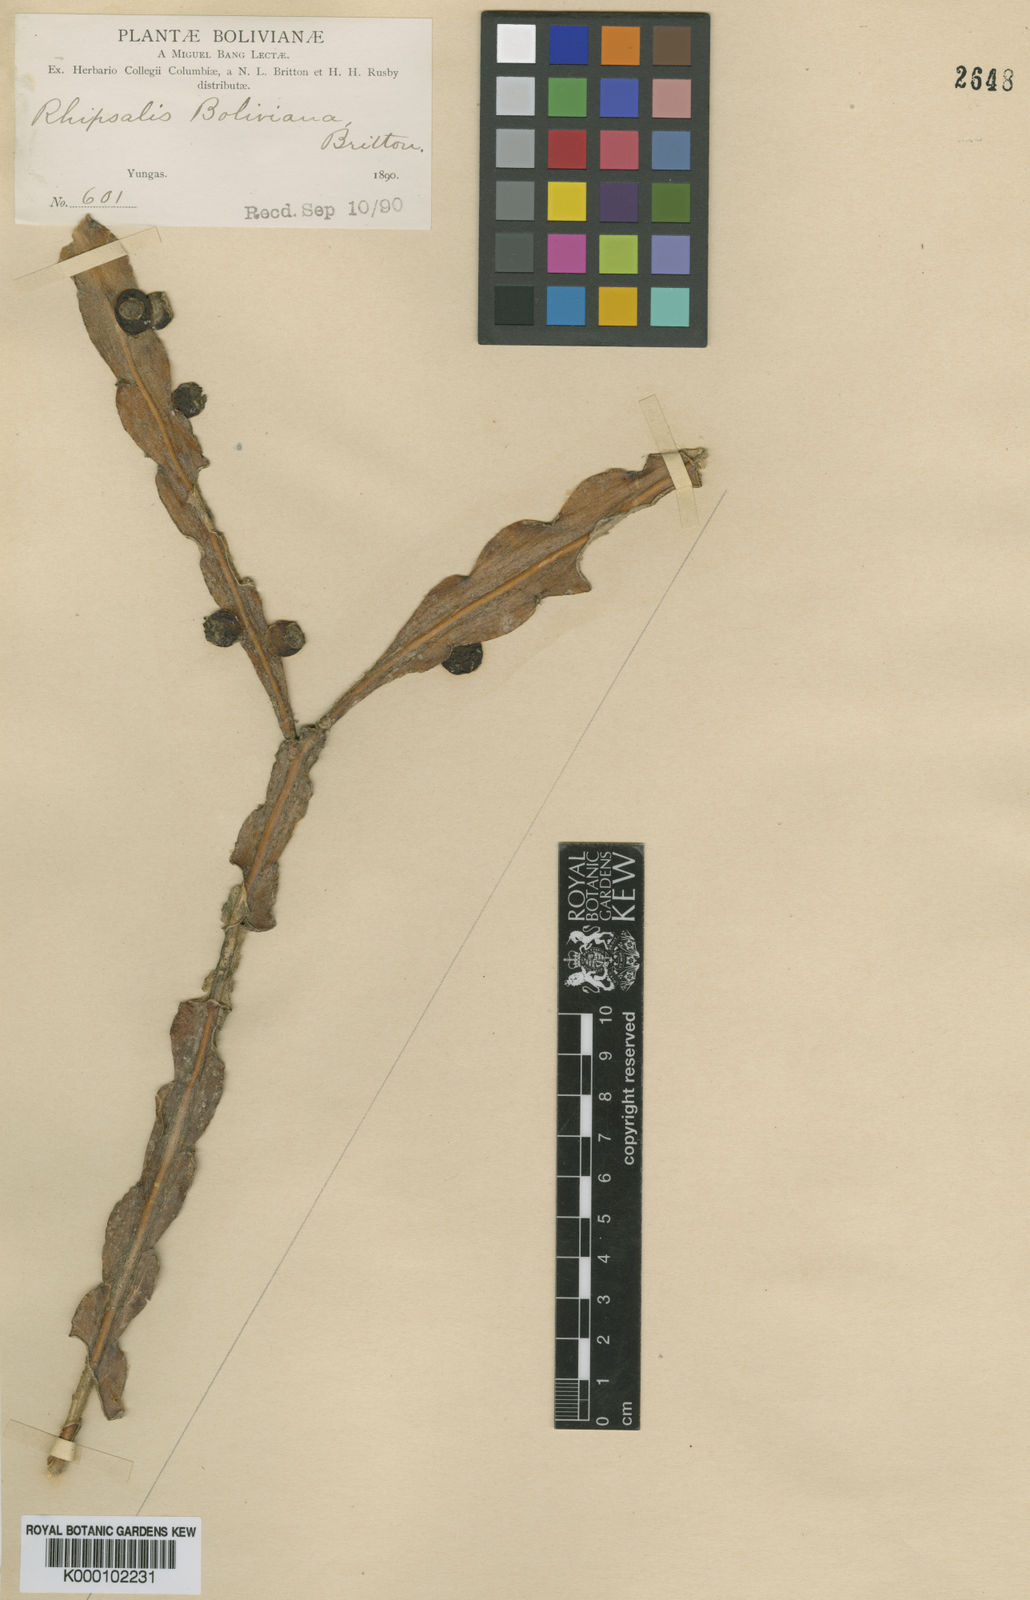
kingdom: Plantae
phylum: Tracheophyta
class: Magnoliopsida
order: Caryophyllales
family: Cactaceae
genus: Pfeiffera
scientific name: Pfeiffera boliviana
